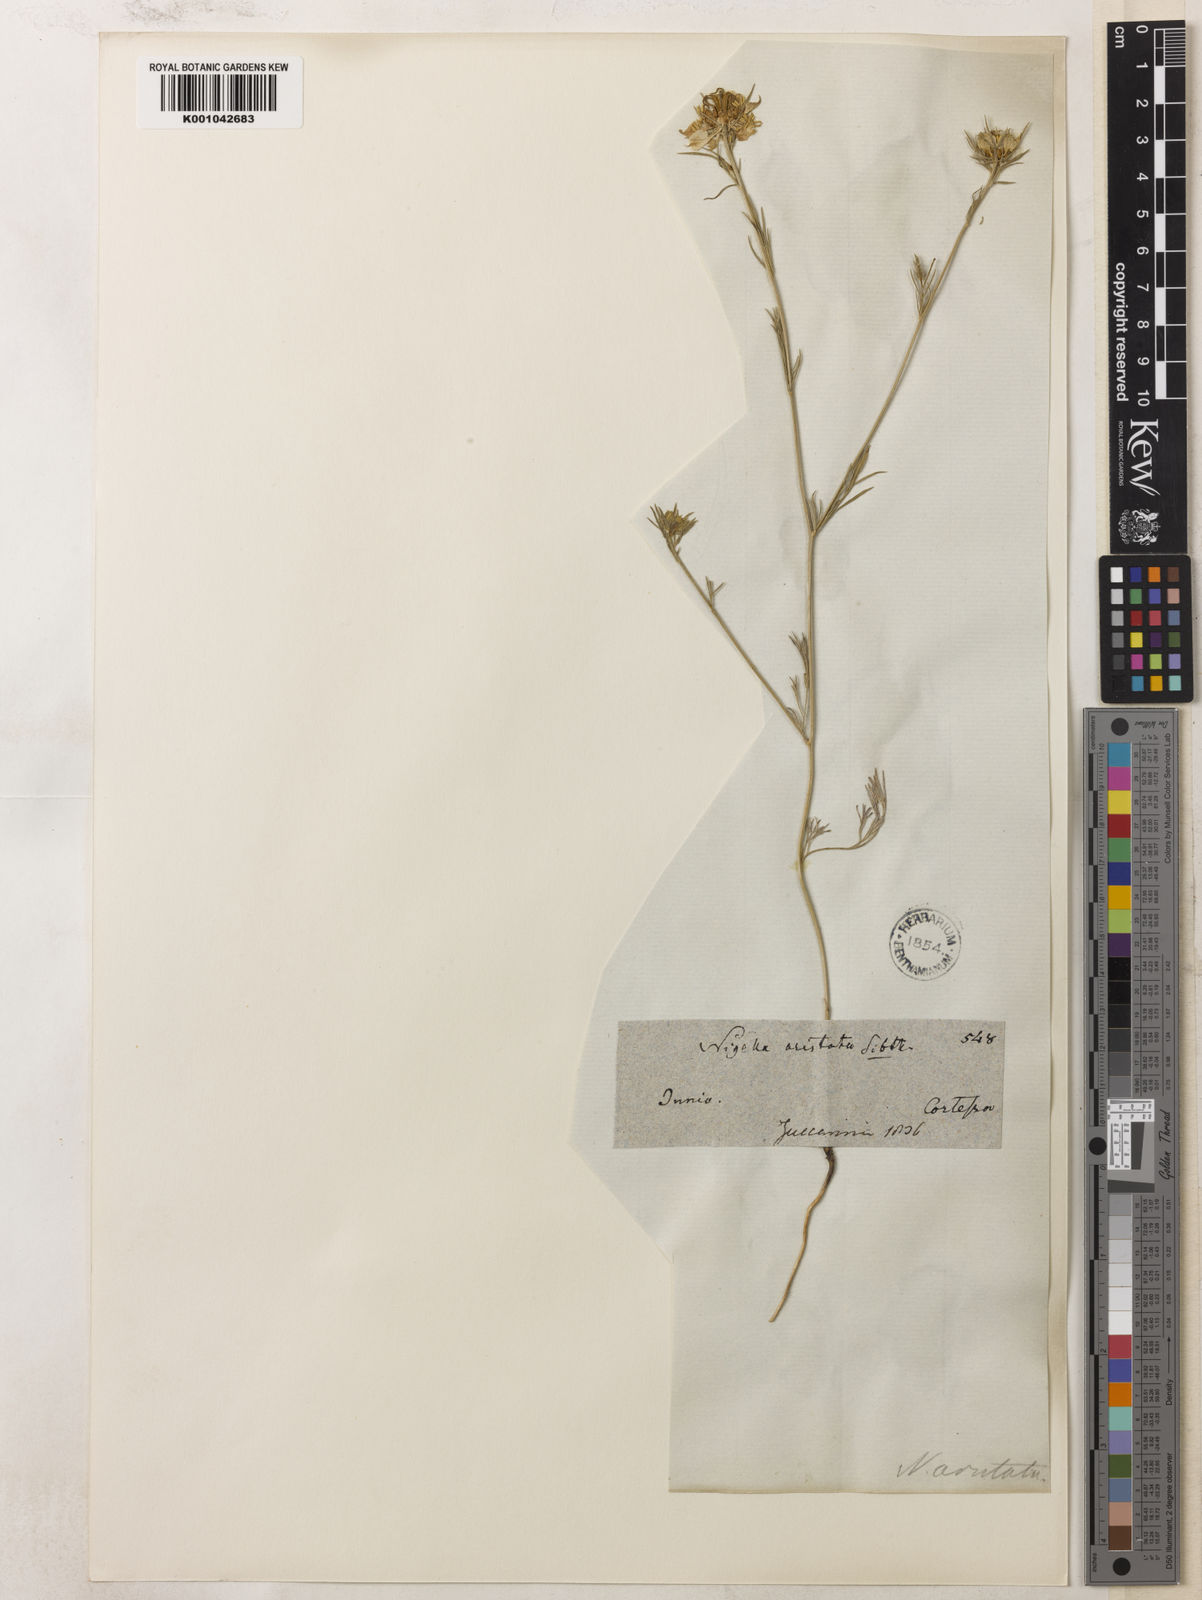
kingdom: Plantae
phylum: Tracheophyta
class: Magnoliopsida
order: Ranunculales
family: Ranunculaceae
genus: Nigella
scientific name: Nigella arvensis
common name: Wild fennel-flower
